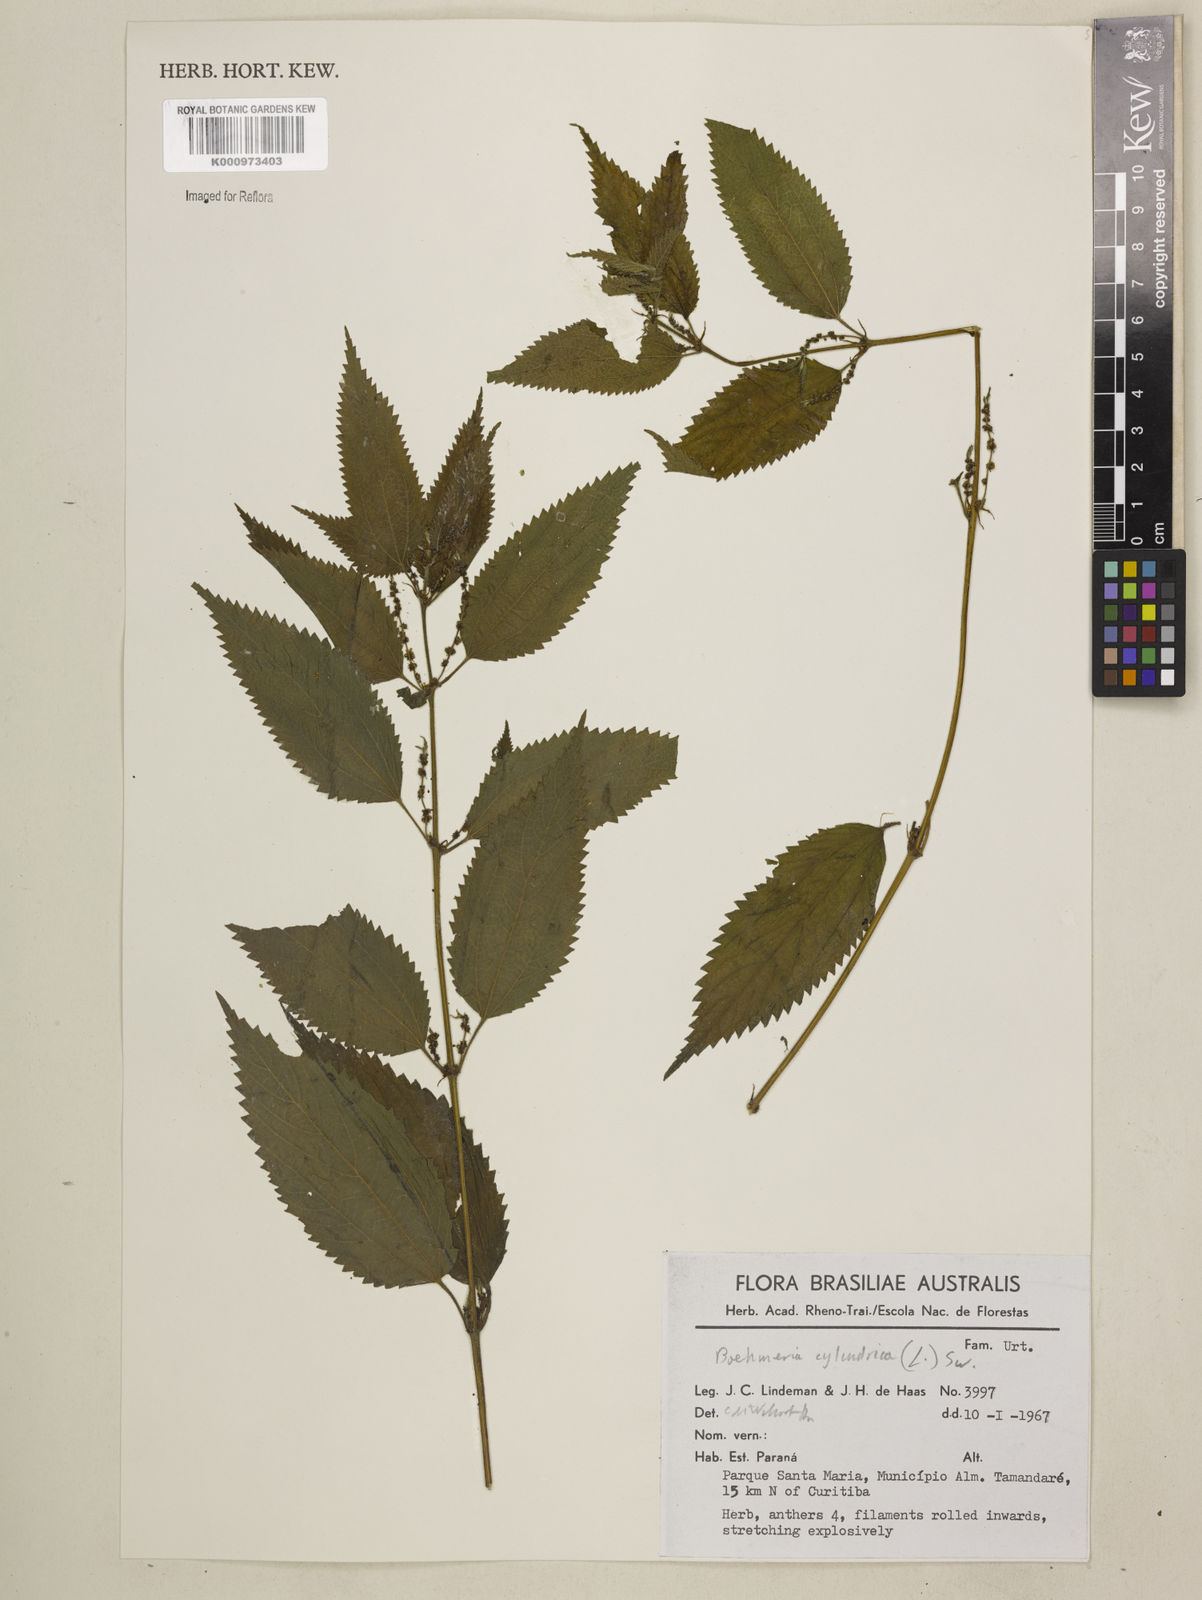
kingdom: Plantae
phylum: Tracheophyta
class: Magnoliopsida
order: Rosales
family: Urticaceae
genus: Boehmeria
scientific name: Boehmeria cylindrica
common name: Bog-hemp
